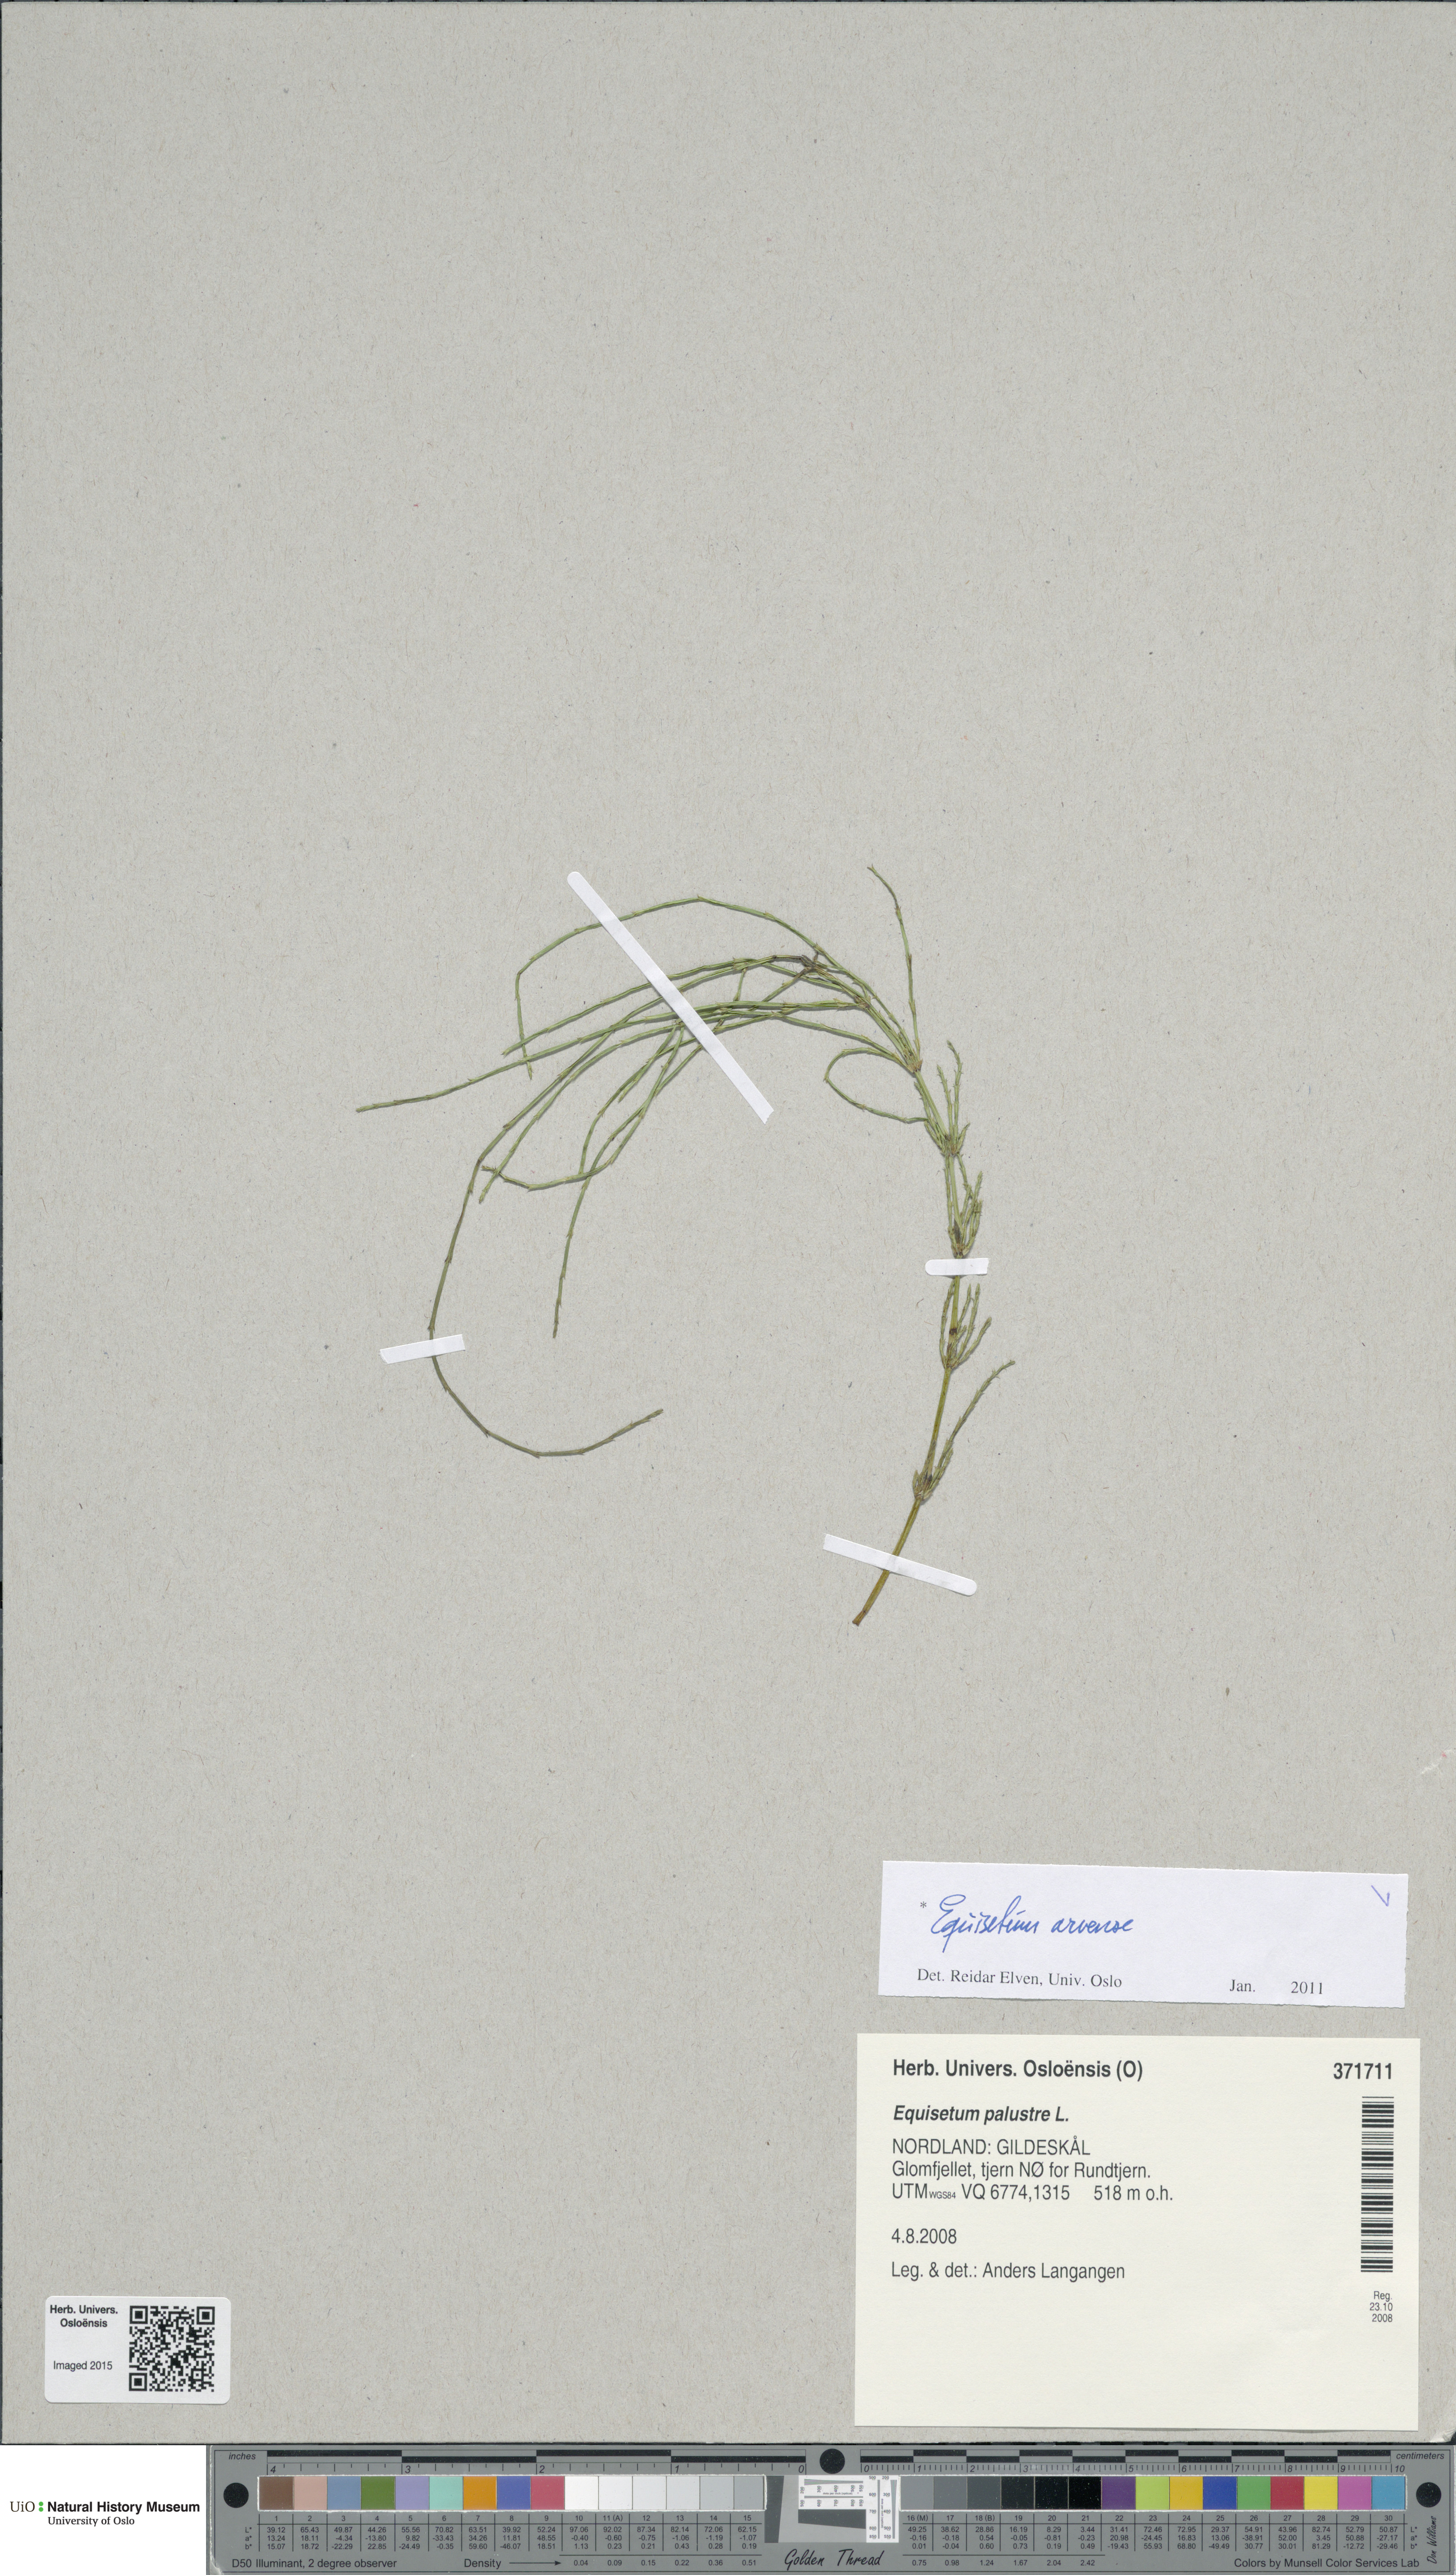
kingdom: Plantae
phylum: Tracheophyta
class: Polypodiopsida
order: Equisetales
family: Equisetaceae
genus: Equisetum
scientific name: Equisetum arvense
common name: Field horsetail
